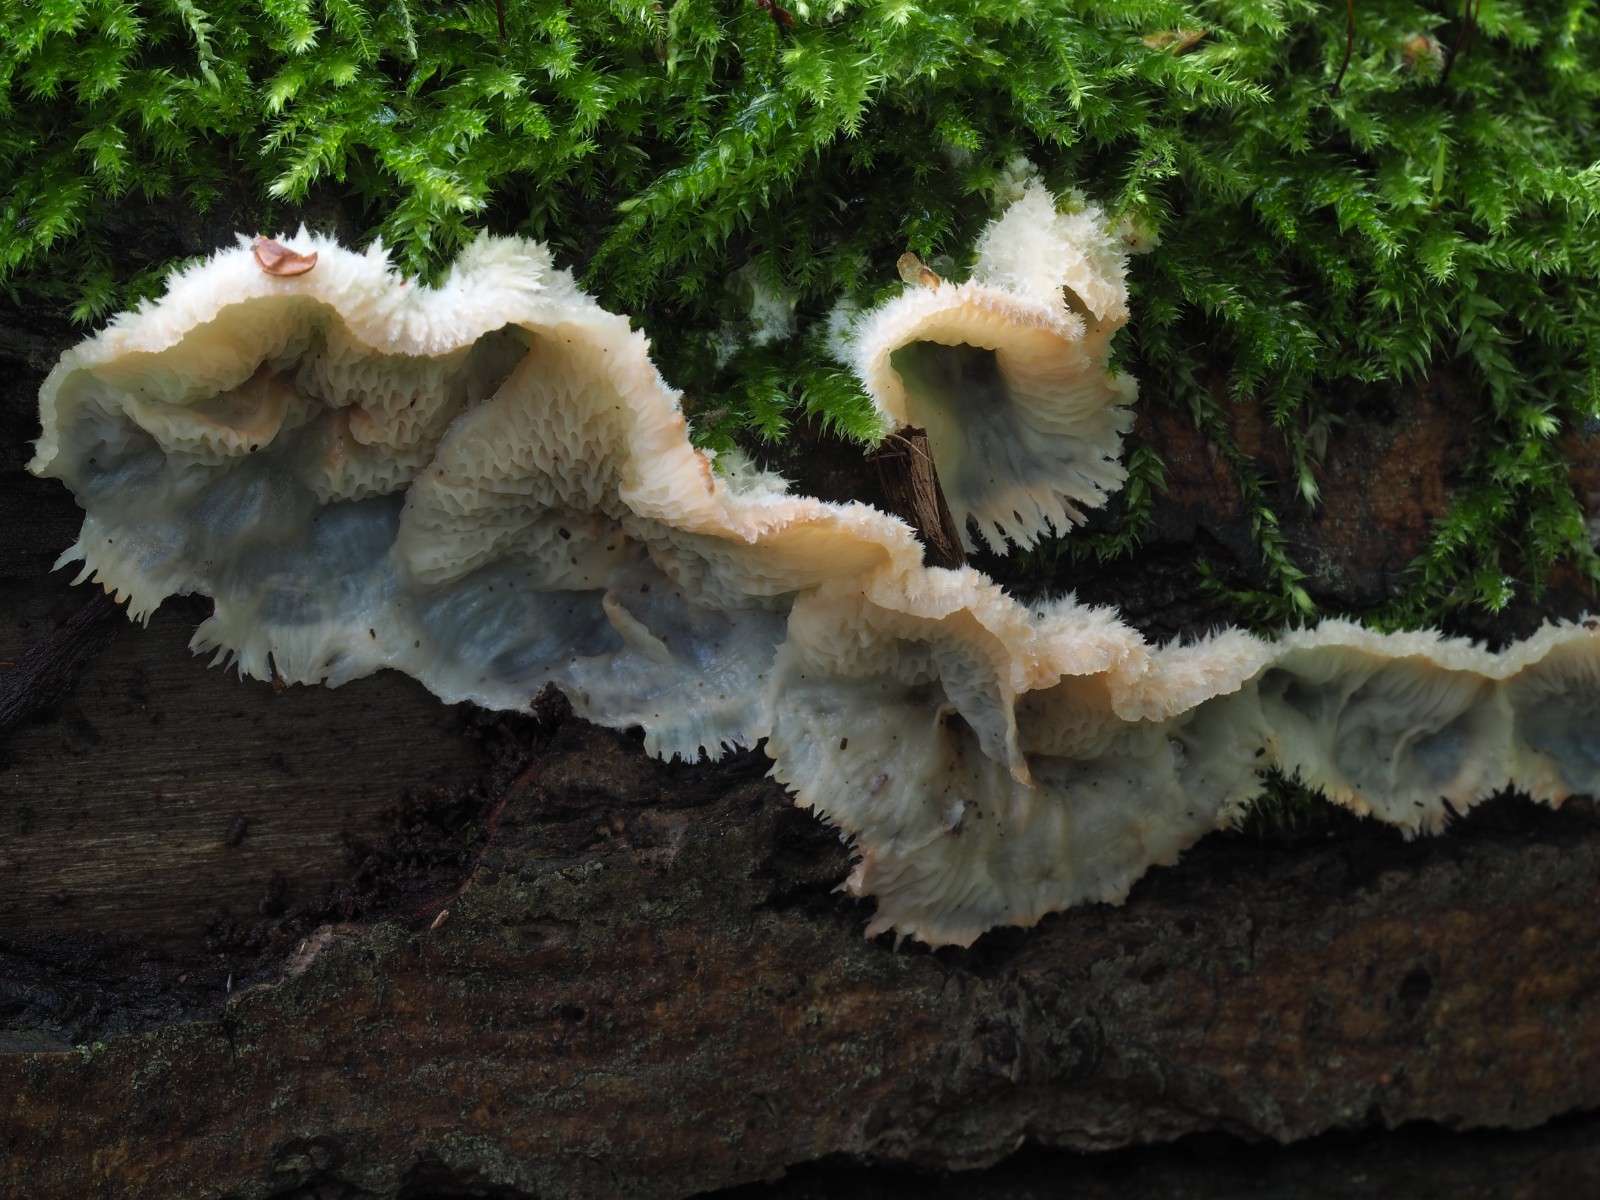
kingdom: Fungi
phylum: Basidiomycota
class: Agaricomycetes
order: Polyporales
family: Meruliaceae
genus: Phlebia
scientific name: Phlebia tremellosa
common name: bævrende åresvamp
